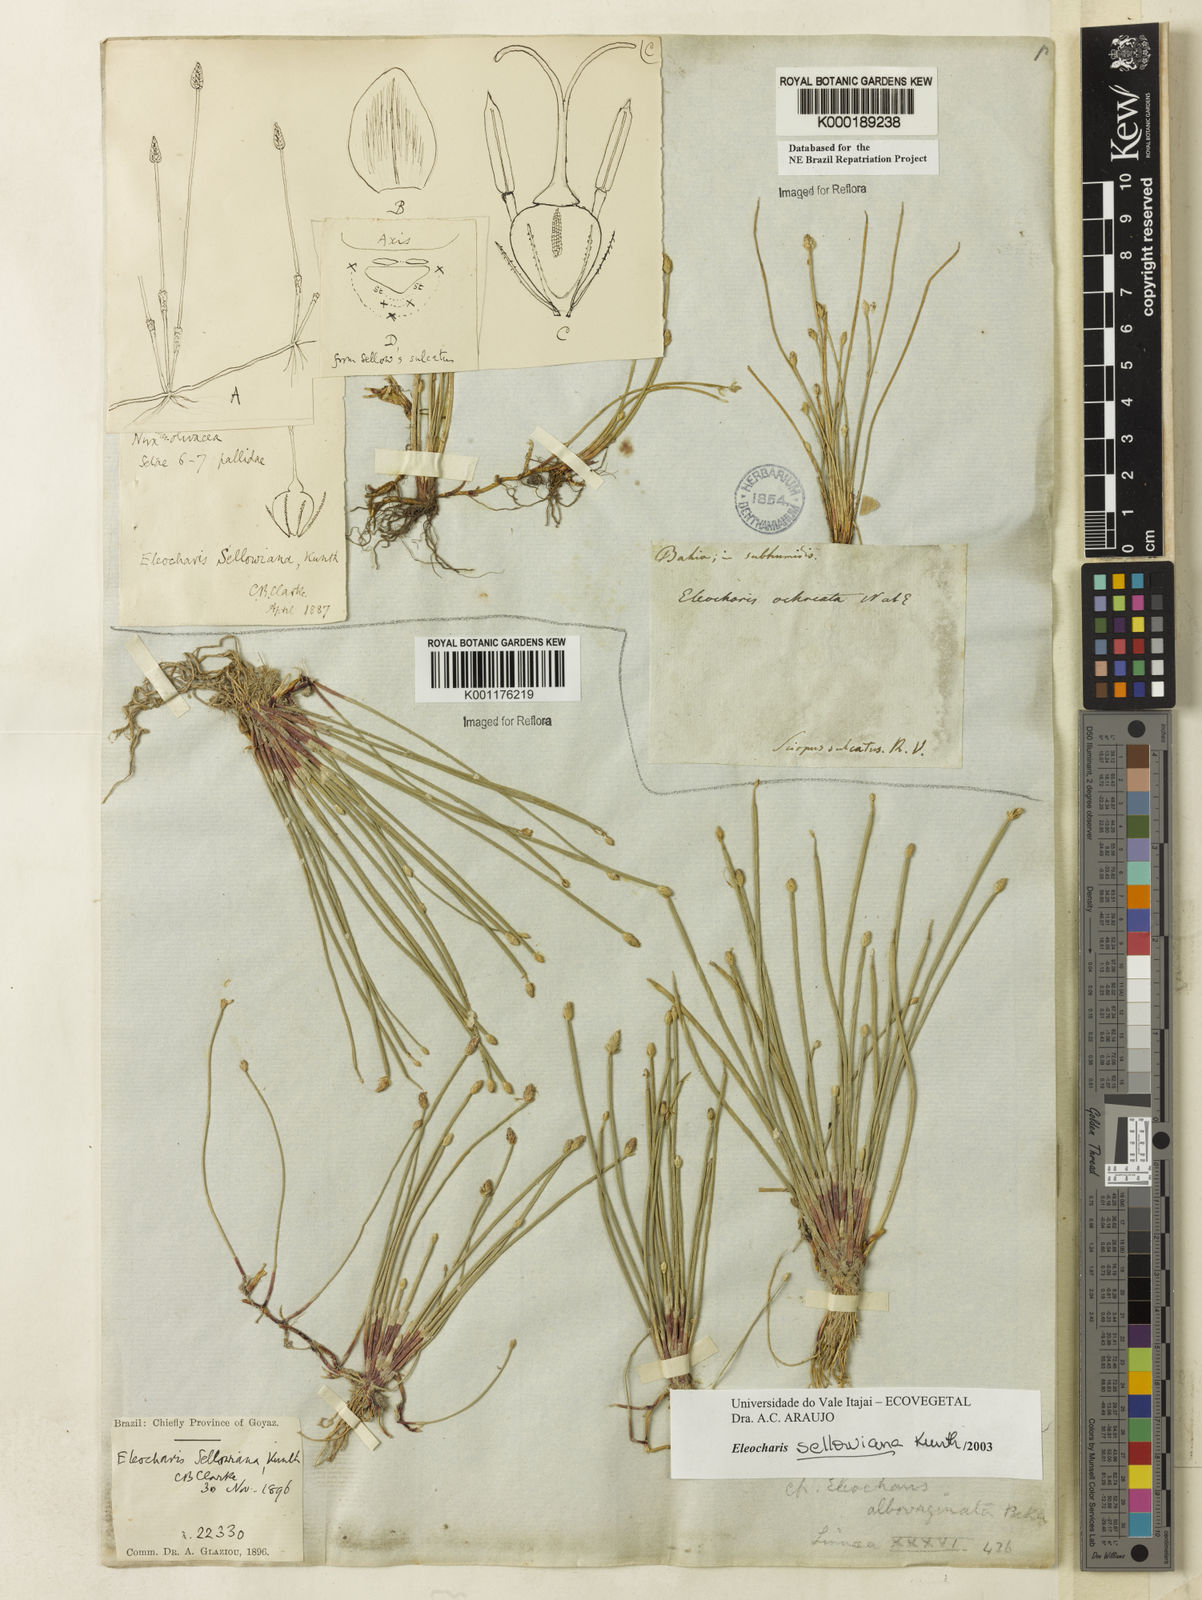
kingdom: Plantae
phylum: Tracheophyta
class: Liliopsida
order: Poales
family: Cyperaceae
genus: Eleocharis
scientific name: Eleocharis sellowiana
